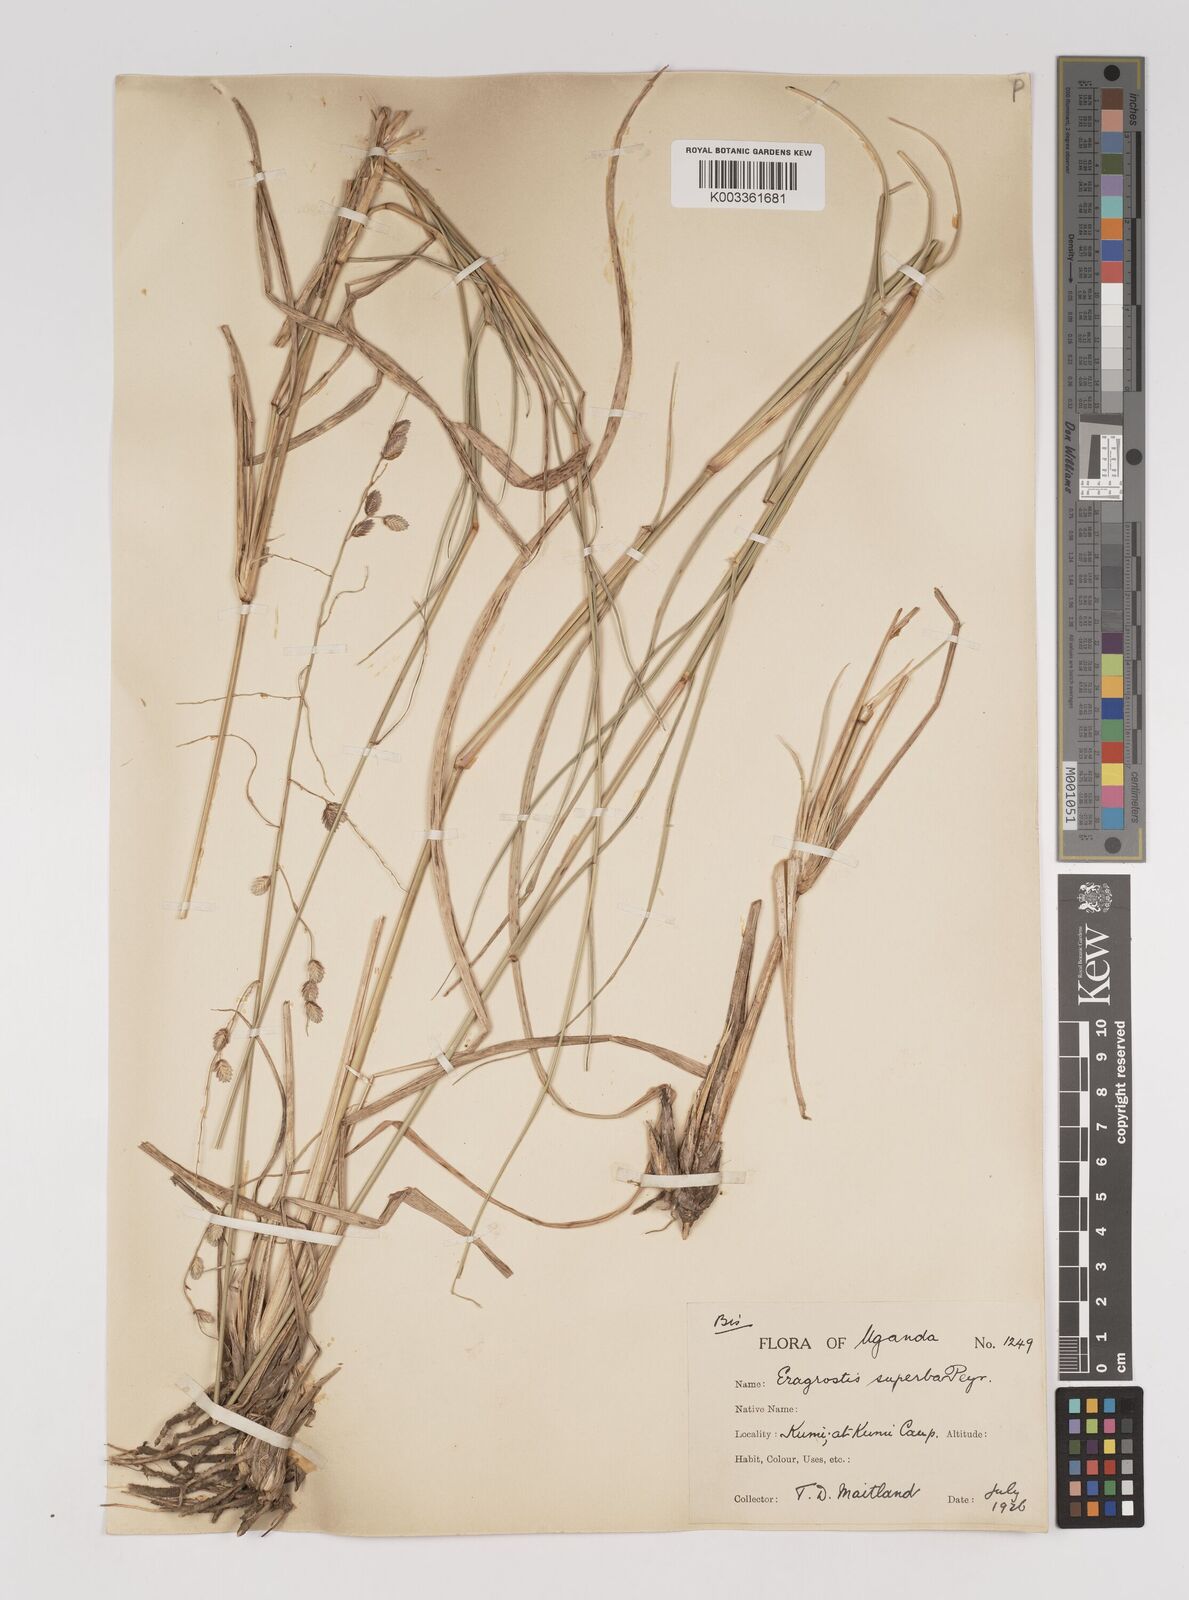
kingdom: Plantae
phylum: Tracheophyta
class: Liliopsida
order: Poales
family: Poaceae
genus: Eragrostis
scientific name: Eragrostis superba
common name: Wilman lovegrass
